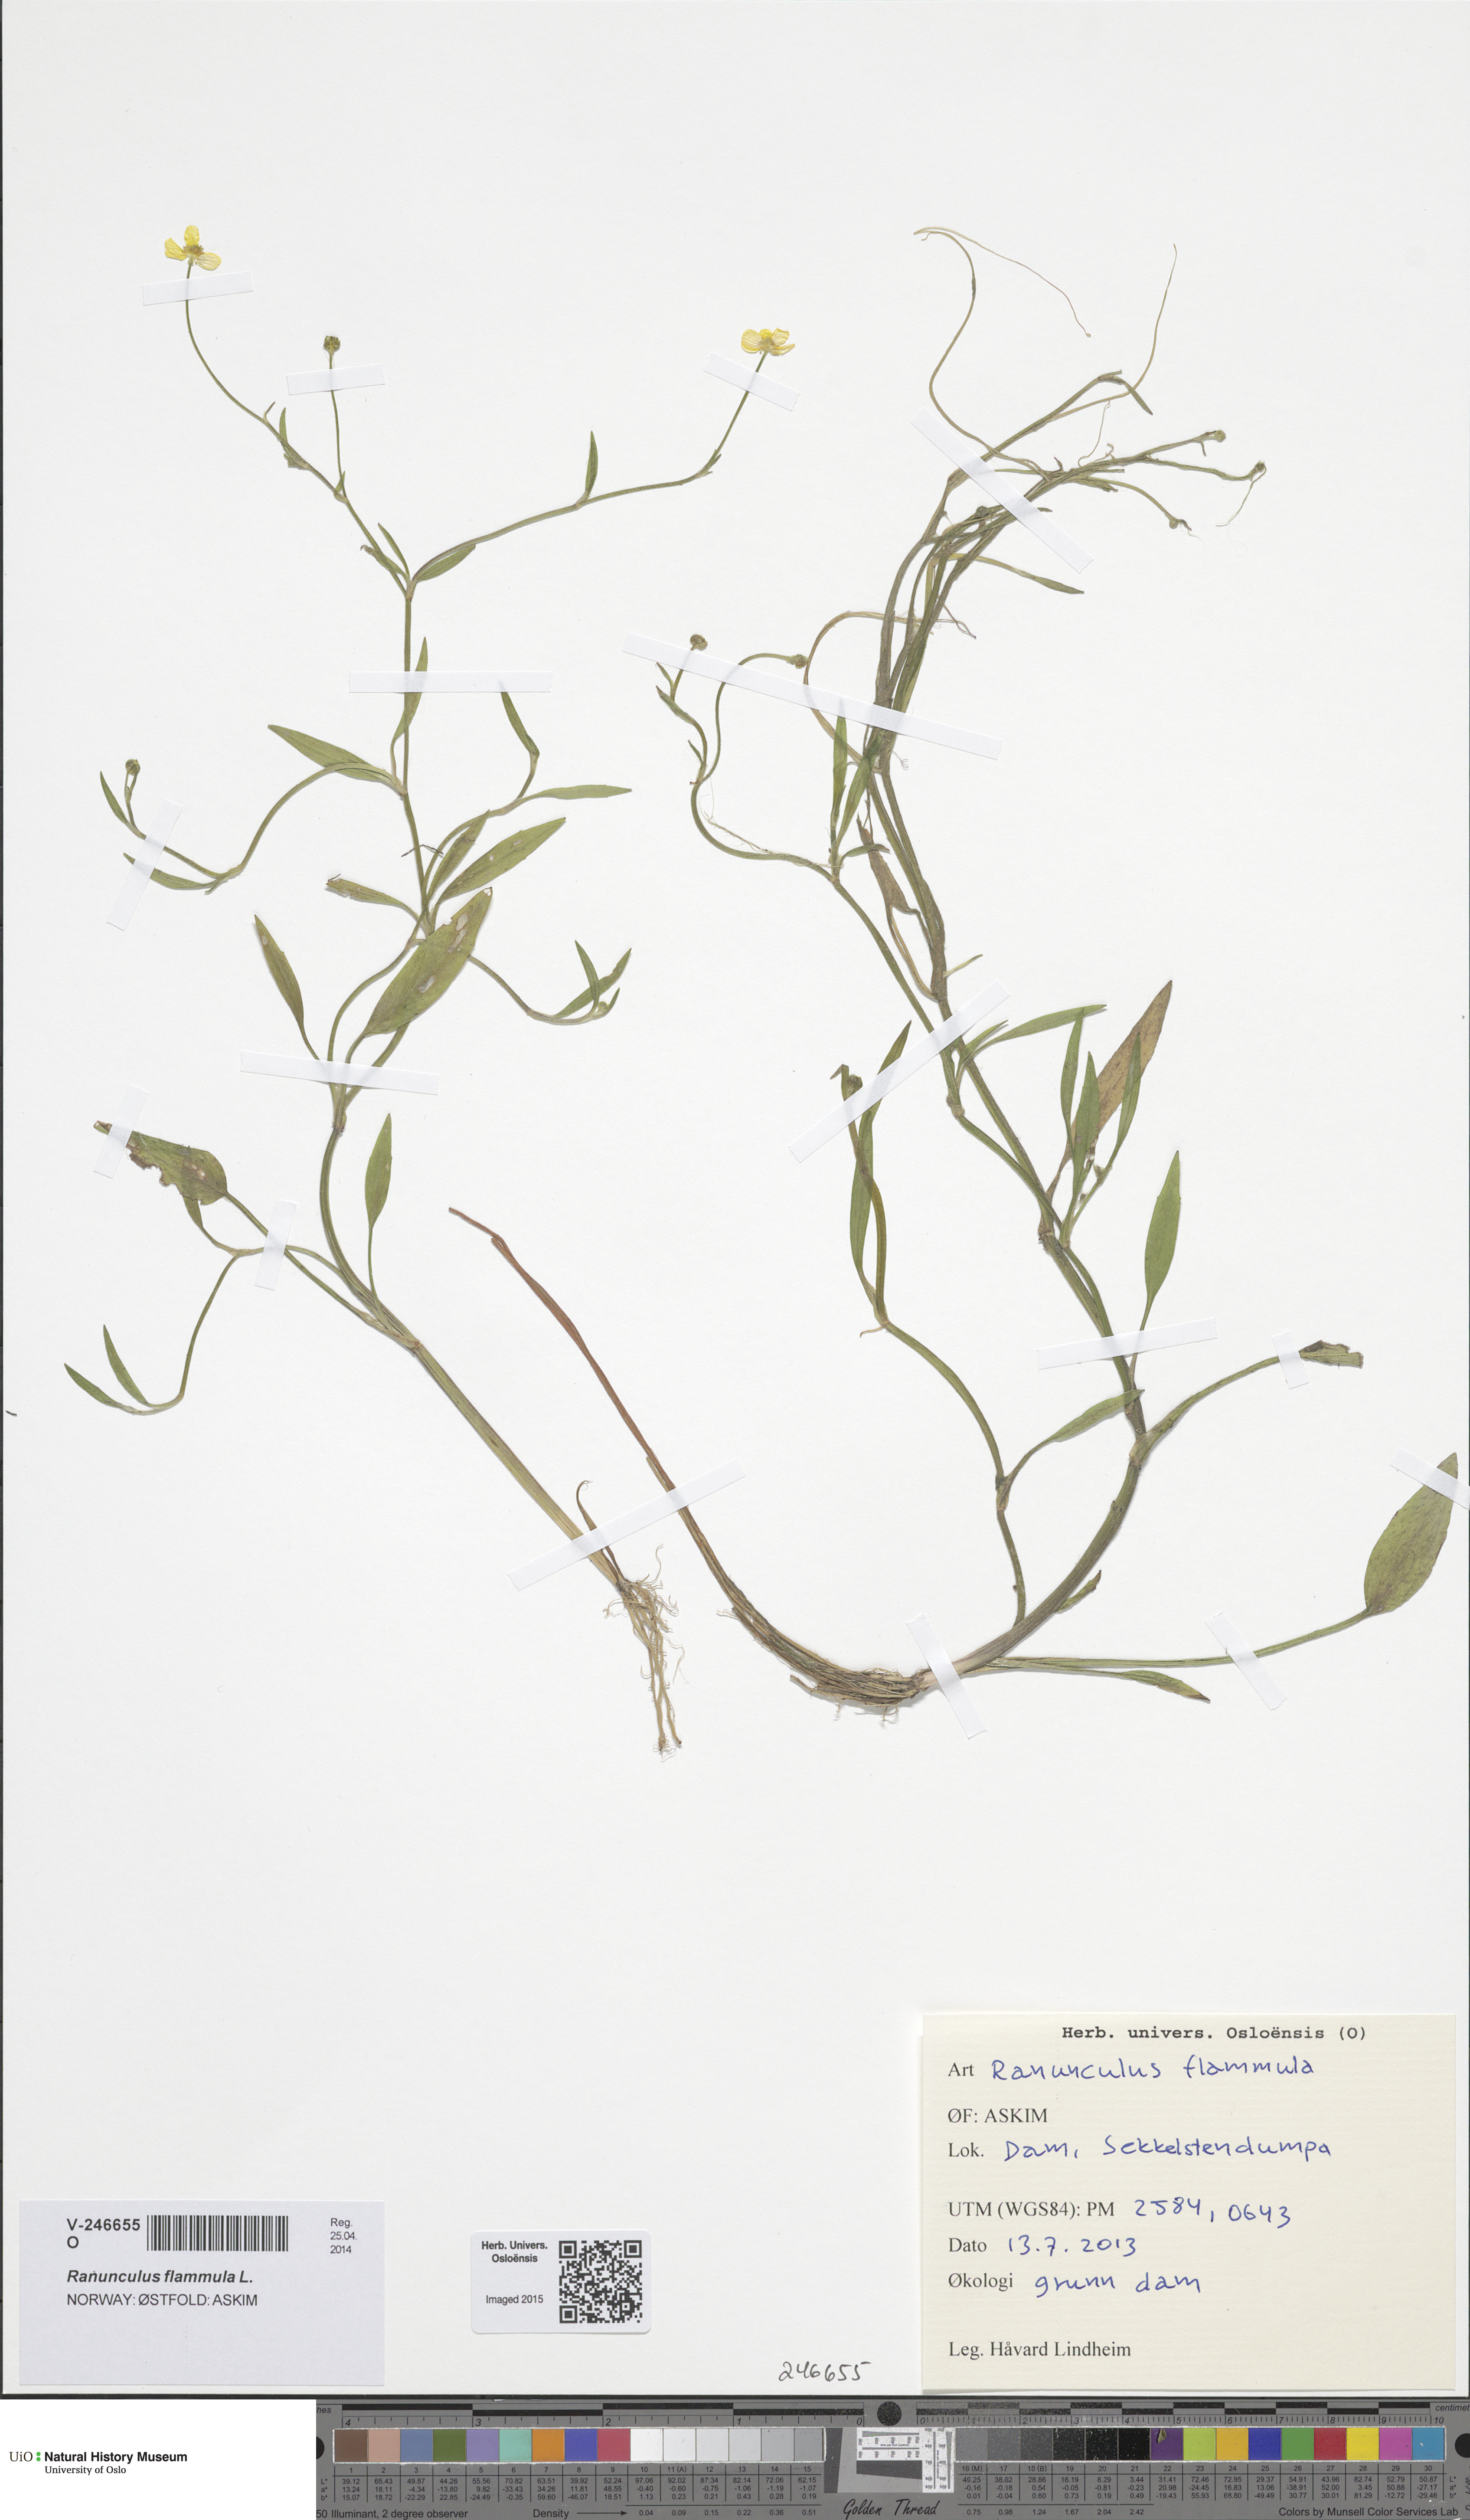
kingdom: Plantae
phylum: Tracheophyta
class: Magnoliopsida
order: Ranunculales
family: Ranunculaceae
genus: Ranunculus
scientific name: Ranunculus flammula
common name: Lesser spearwort
